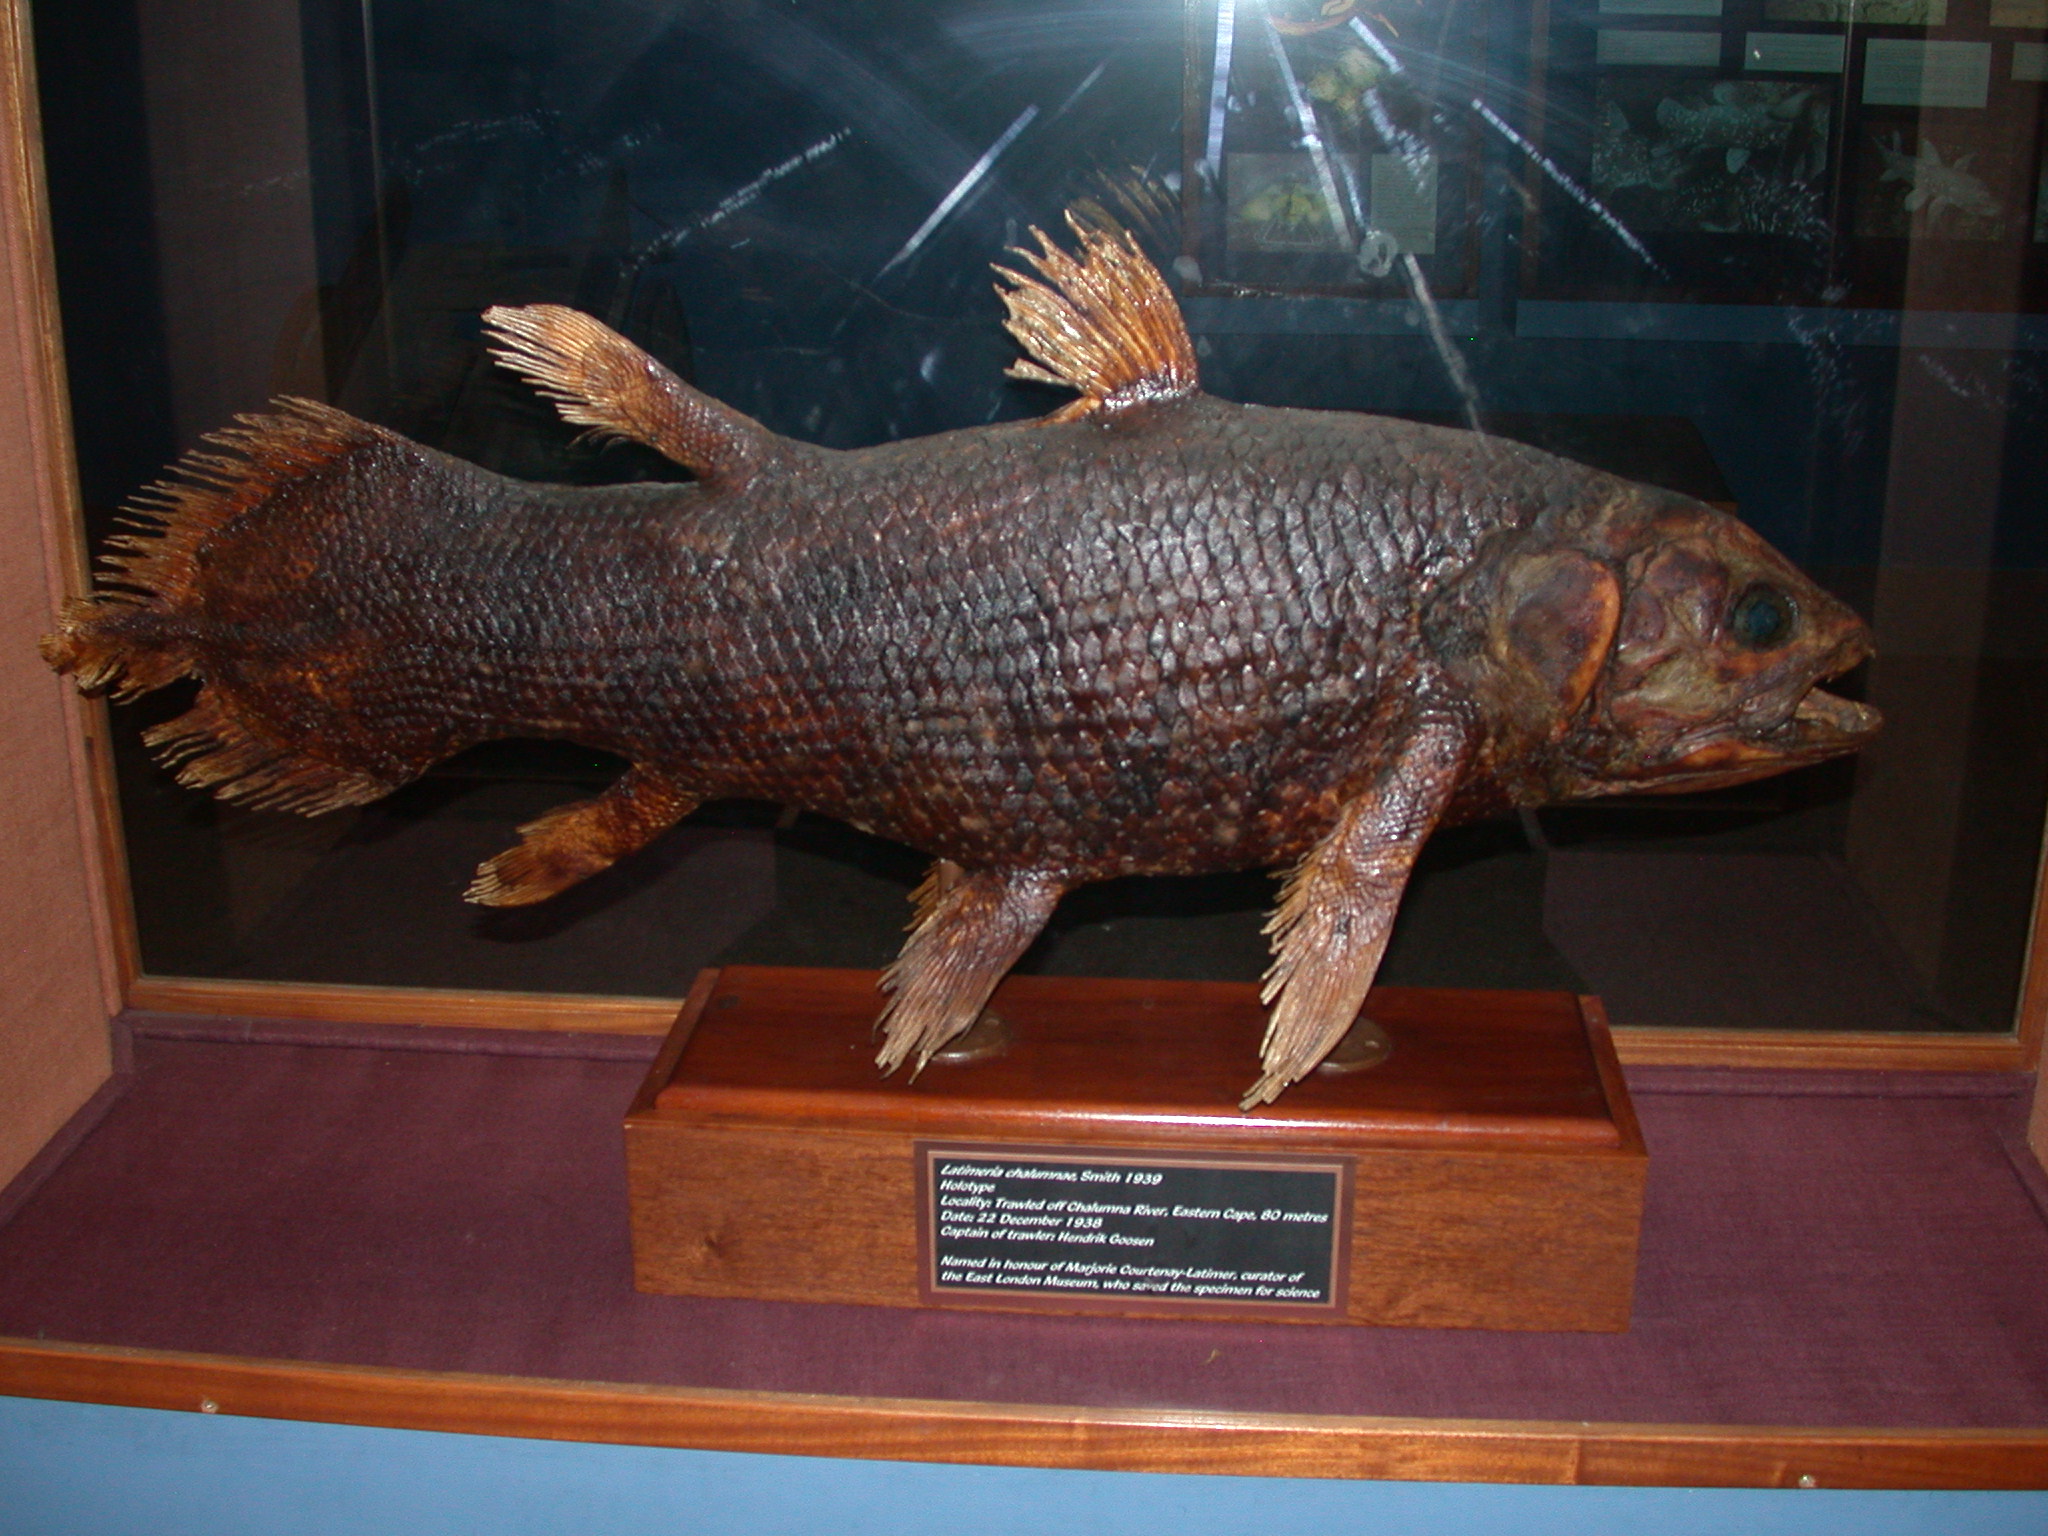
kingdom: Animalia
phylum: Chordata
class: Coelacanthi
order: Coelacanthiformes
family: Latimeriidae
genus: Latimeria
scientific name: Latimeria chalumnae
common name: Coelacanth
